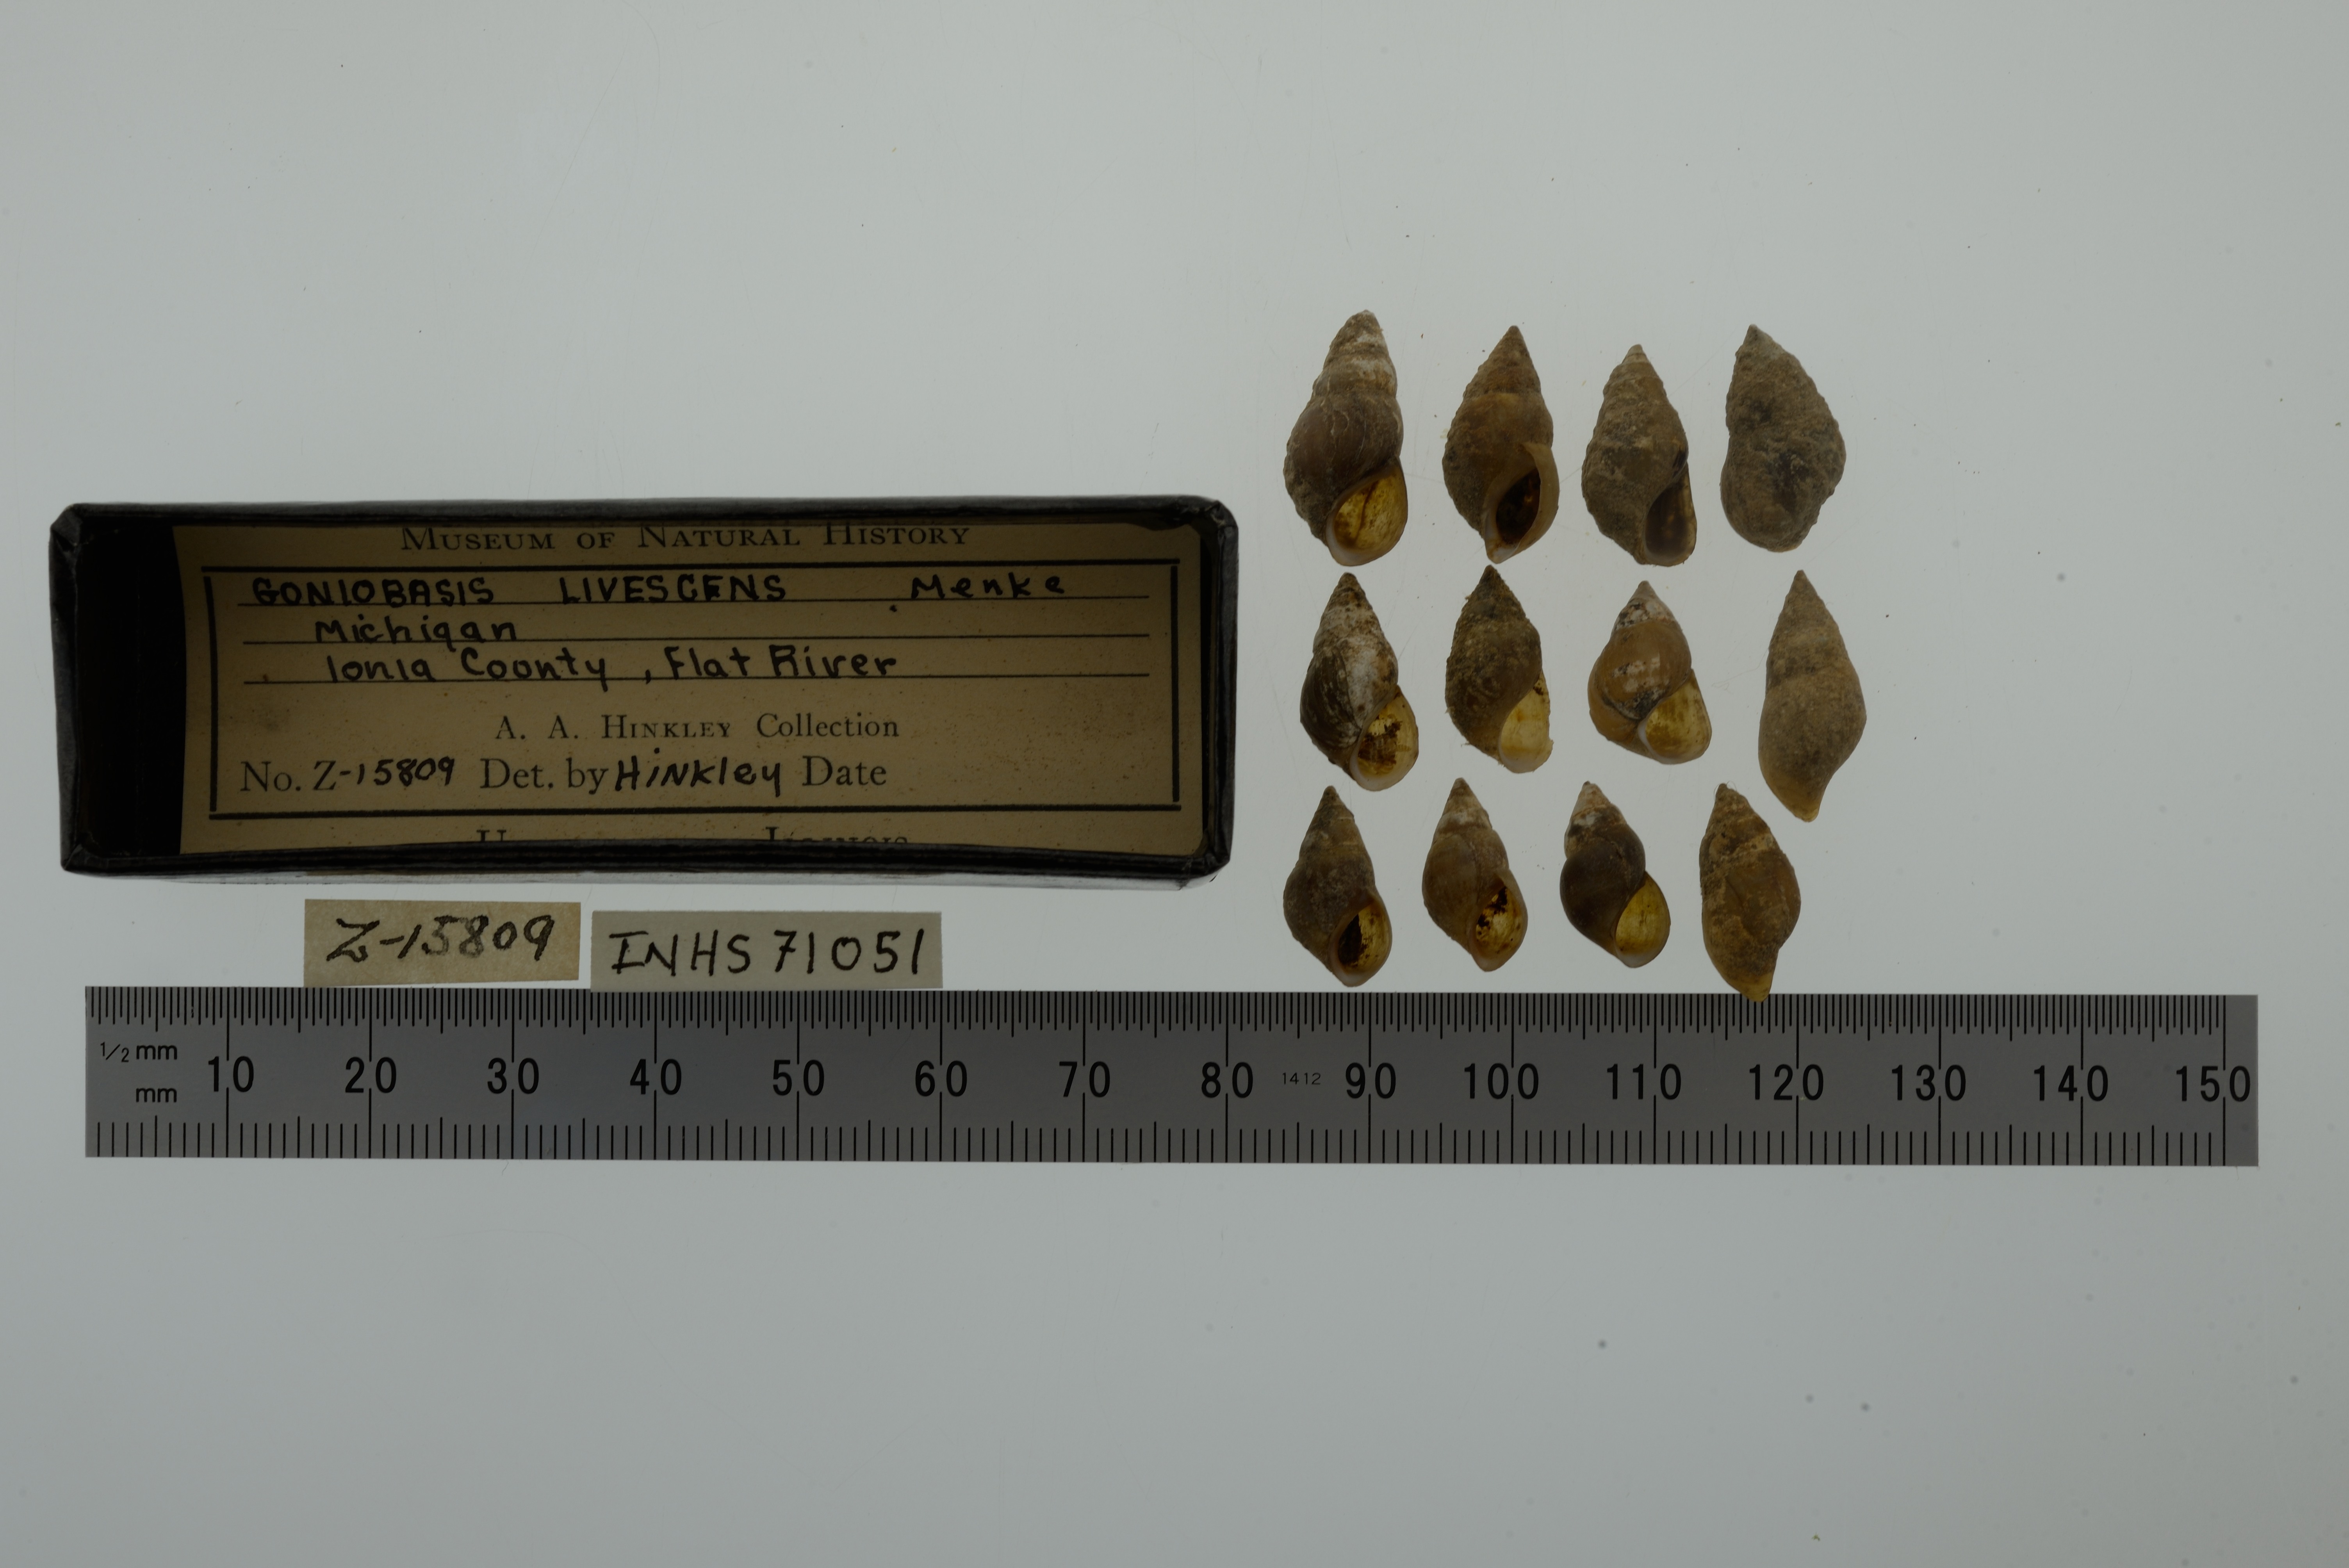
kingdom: Animalia
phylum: Mollusca
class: Gastropoda
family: Pleuroceridae
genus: Elimia
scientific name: Elimia livescens
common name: Liver elimia
